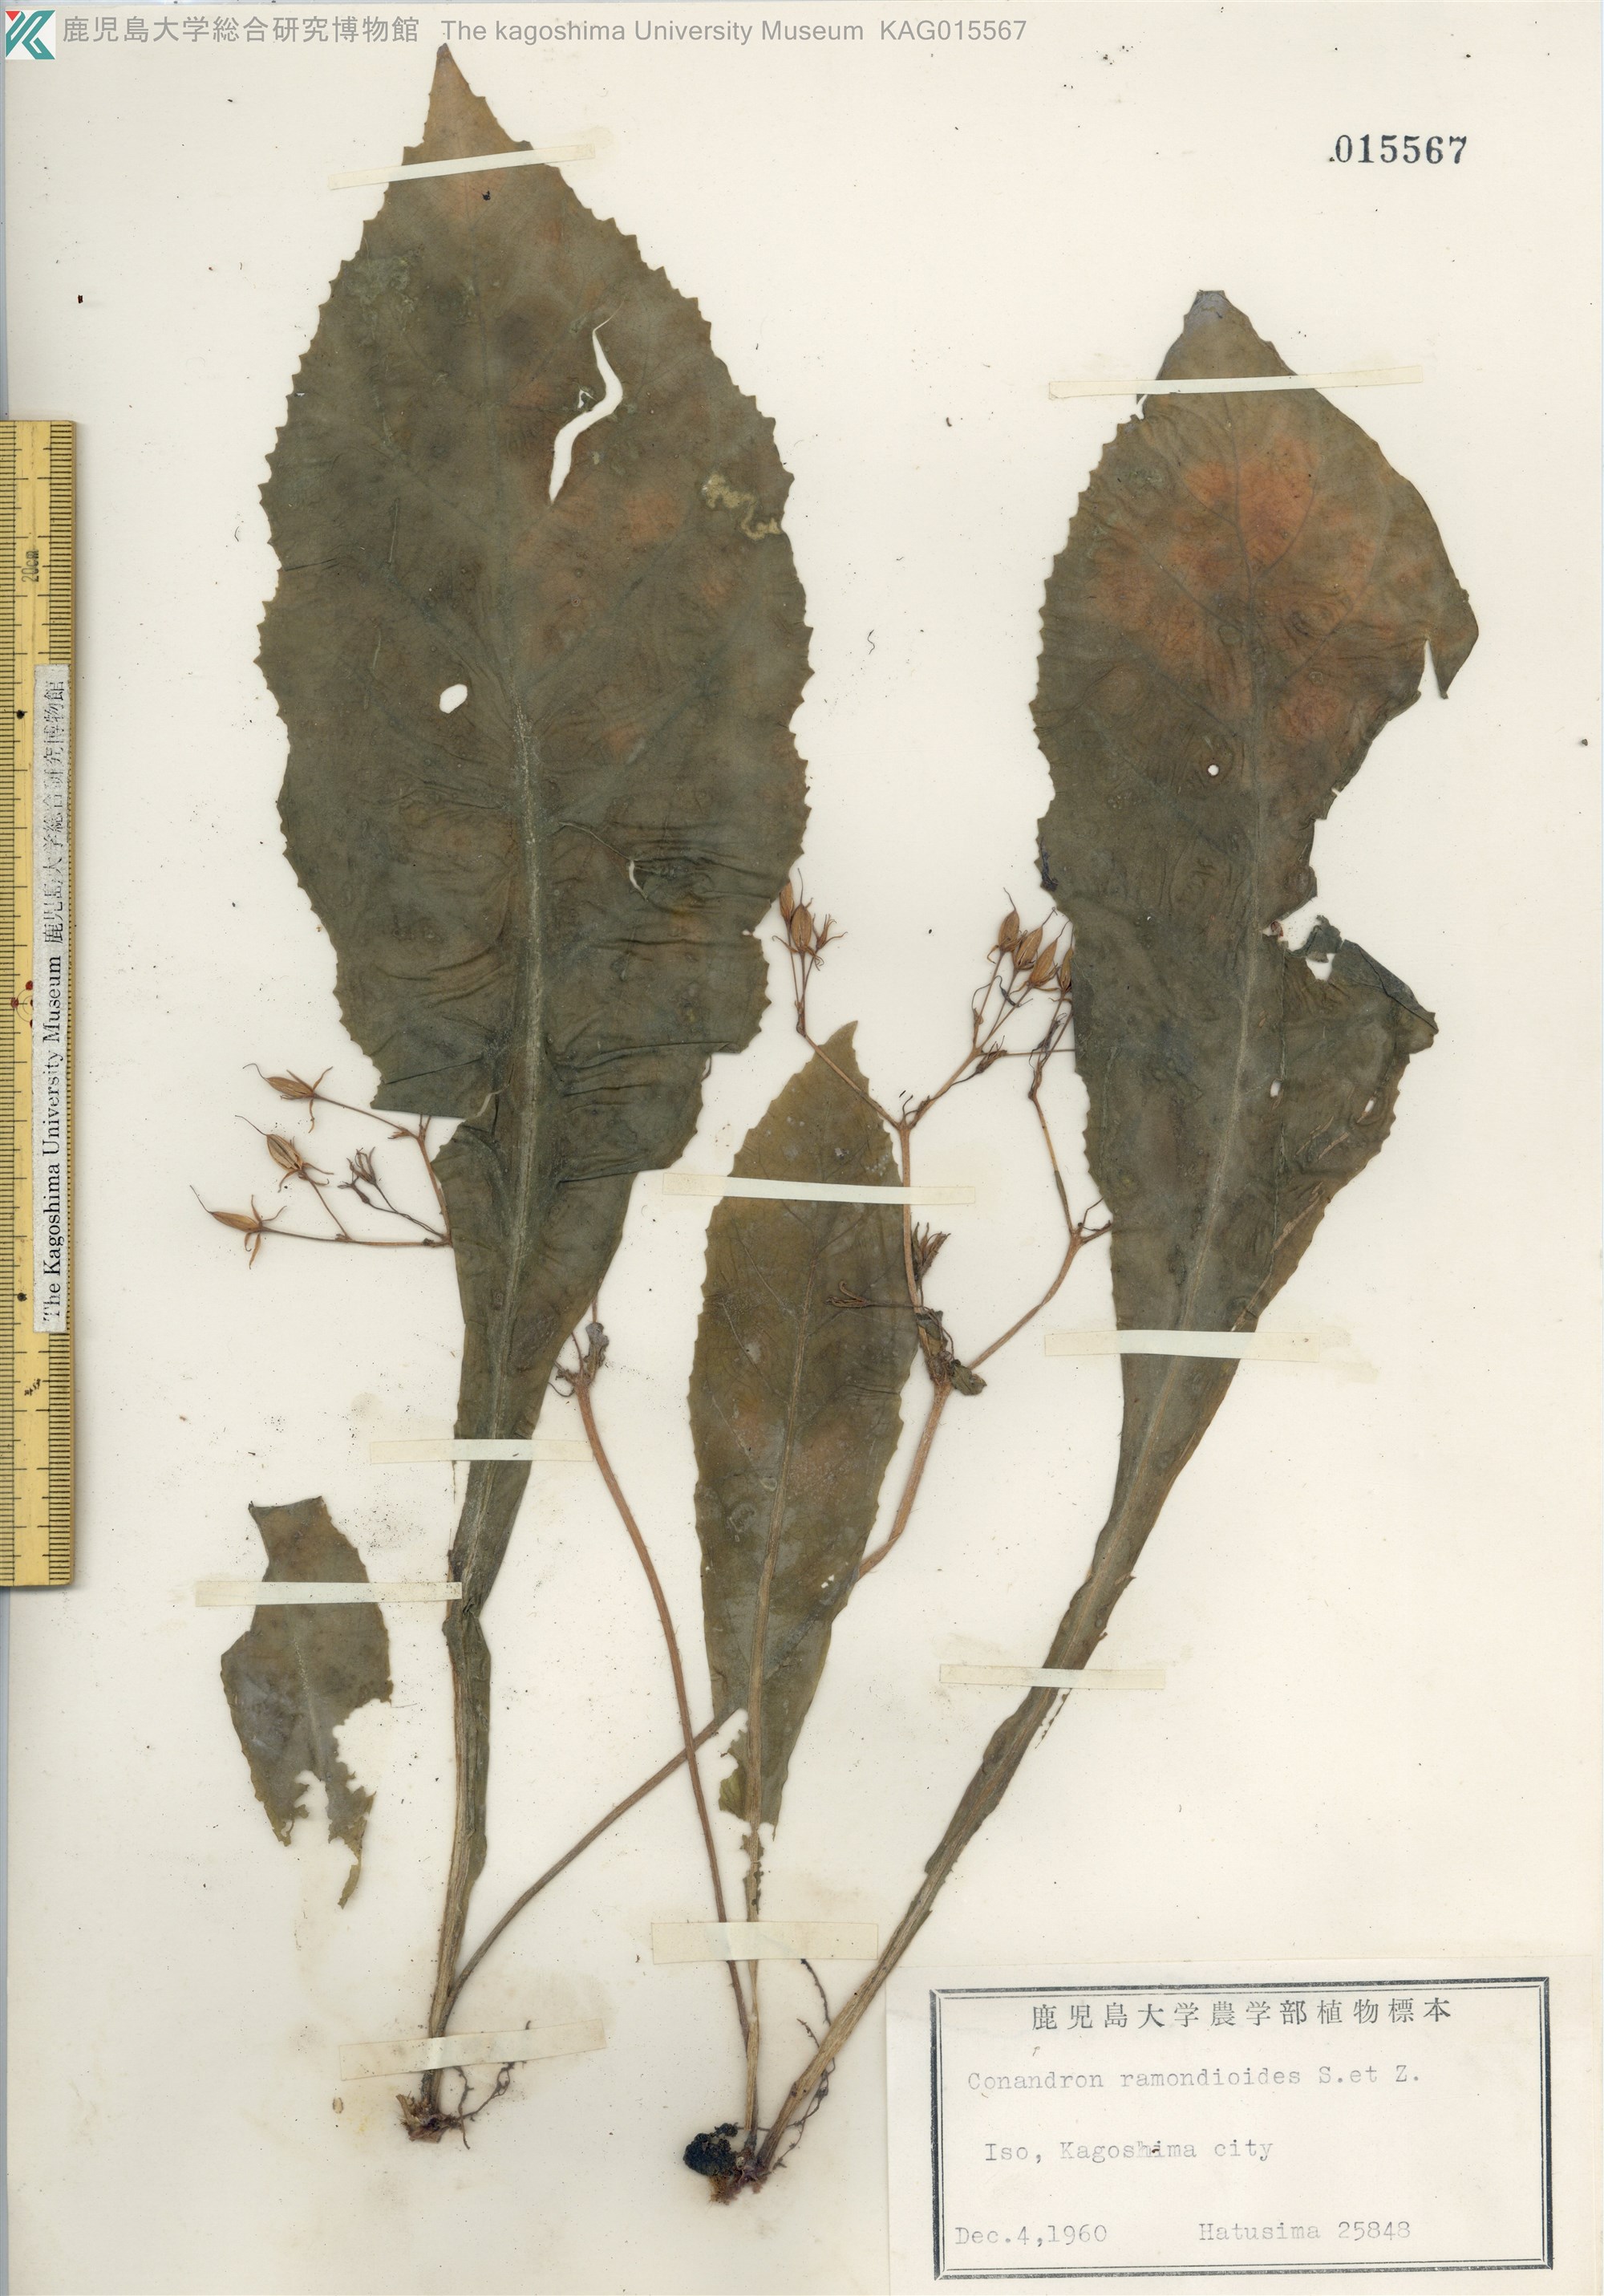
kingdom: Plantae
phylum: Tracheophyta
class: Magnoliopsida
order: Lamiales
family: Gesneriaceae
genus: Conandron
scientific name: Conandron ramondioides
